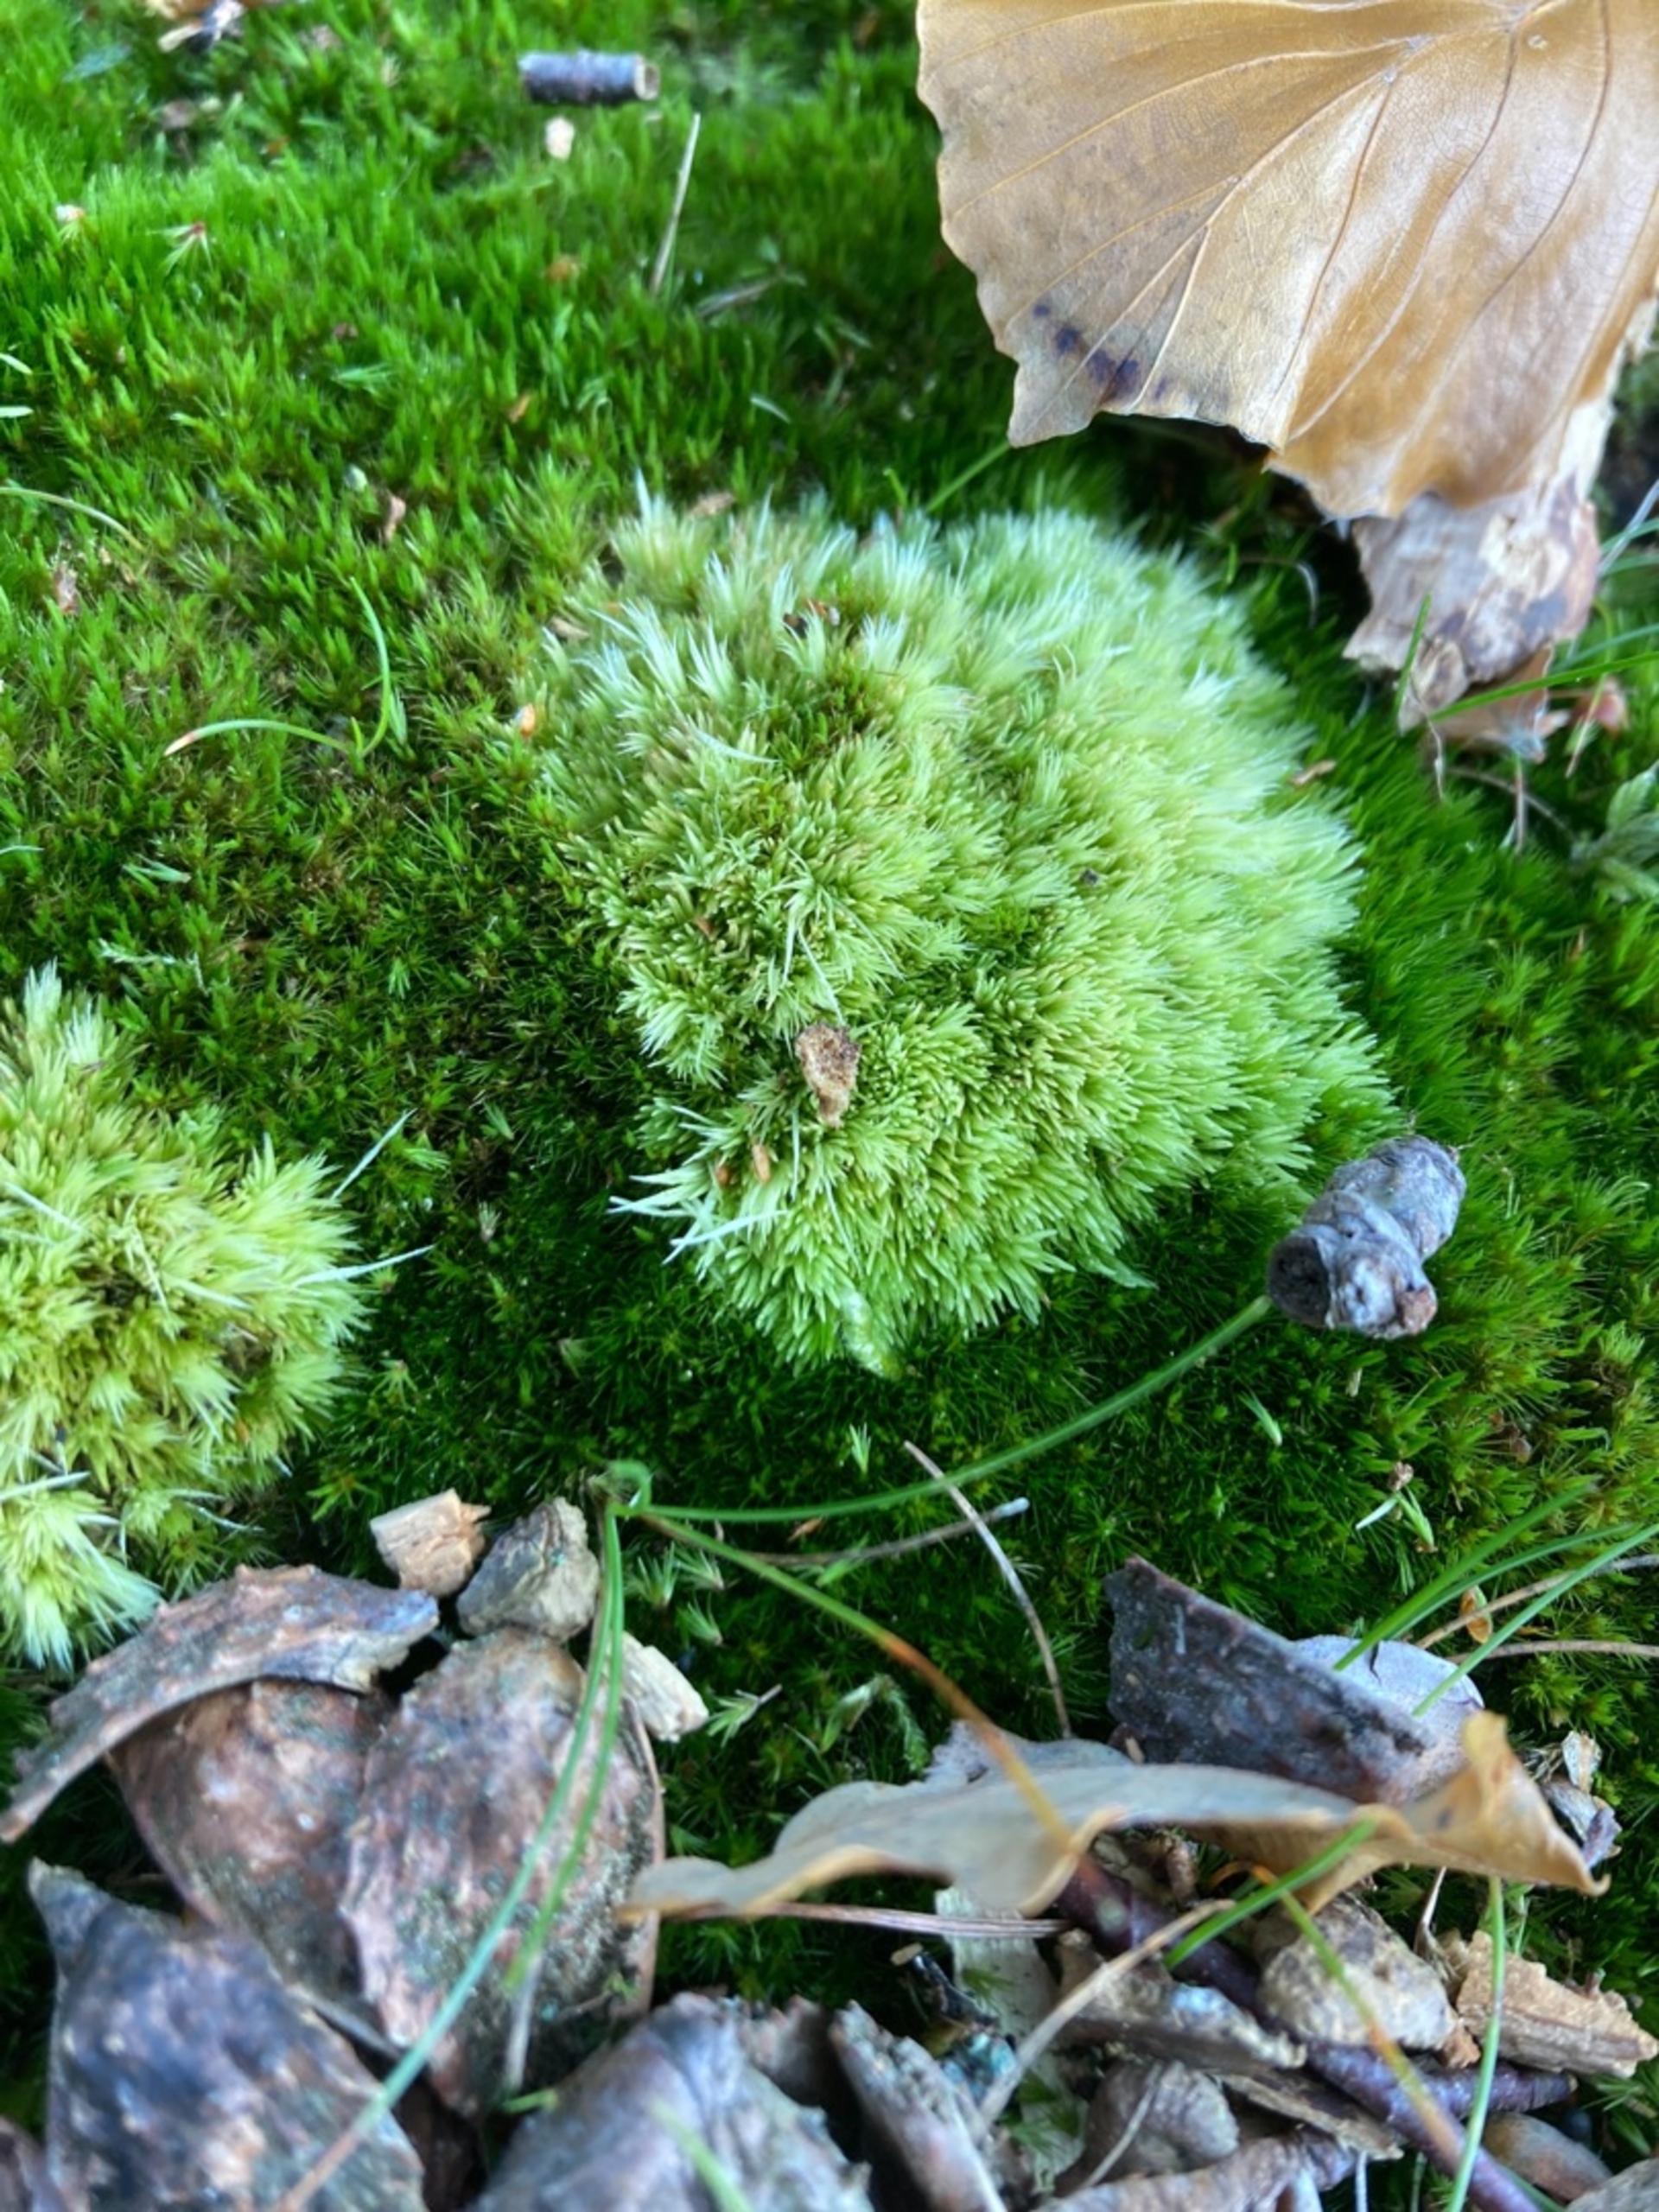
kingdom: Plantae
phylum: Bryophyta
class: Bryopsida
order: Dicranales
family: Leucobryaceae
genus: Leucobryum
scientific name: Leucobryum glaucum
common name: Almindelig hvidmos
